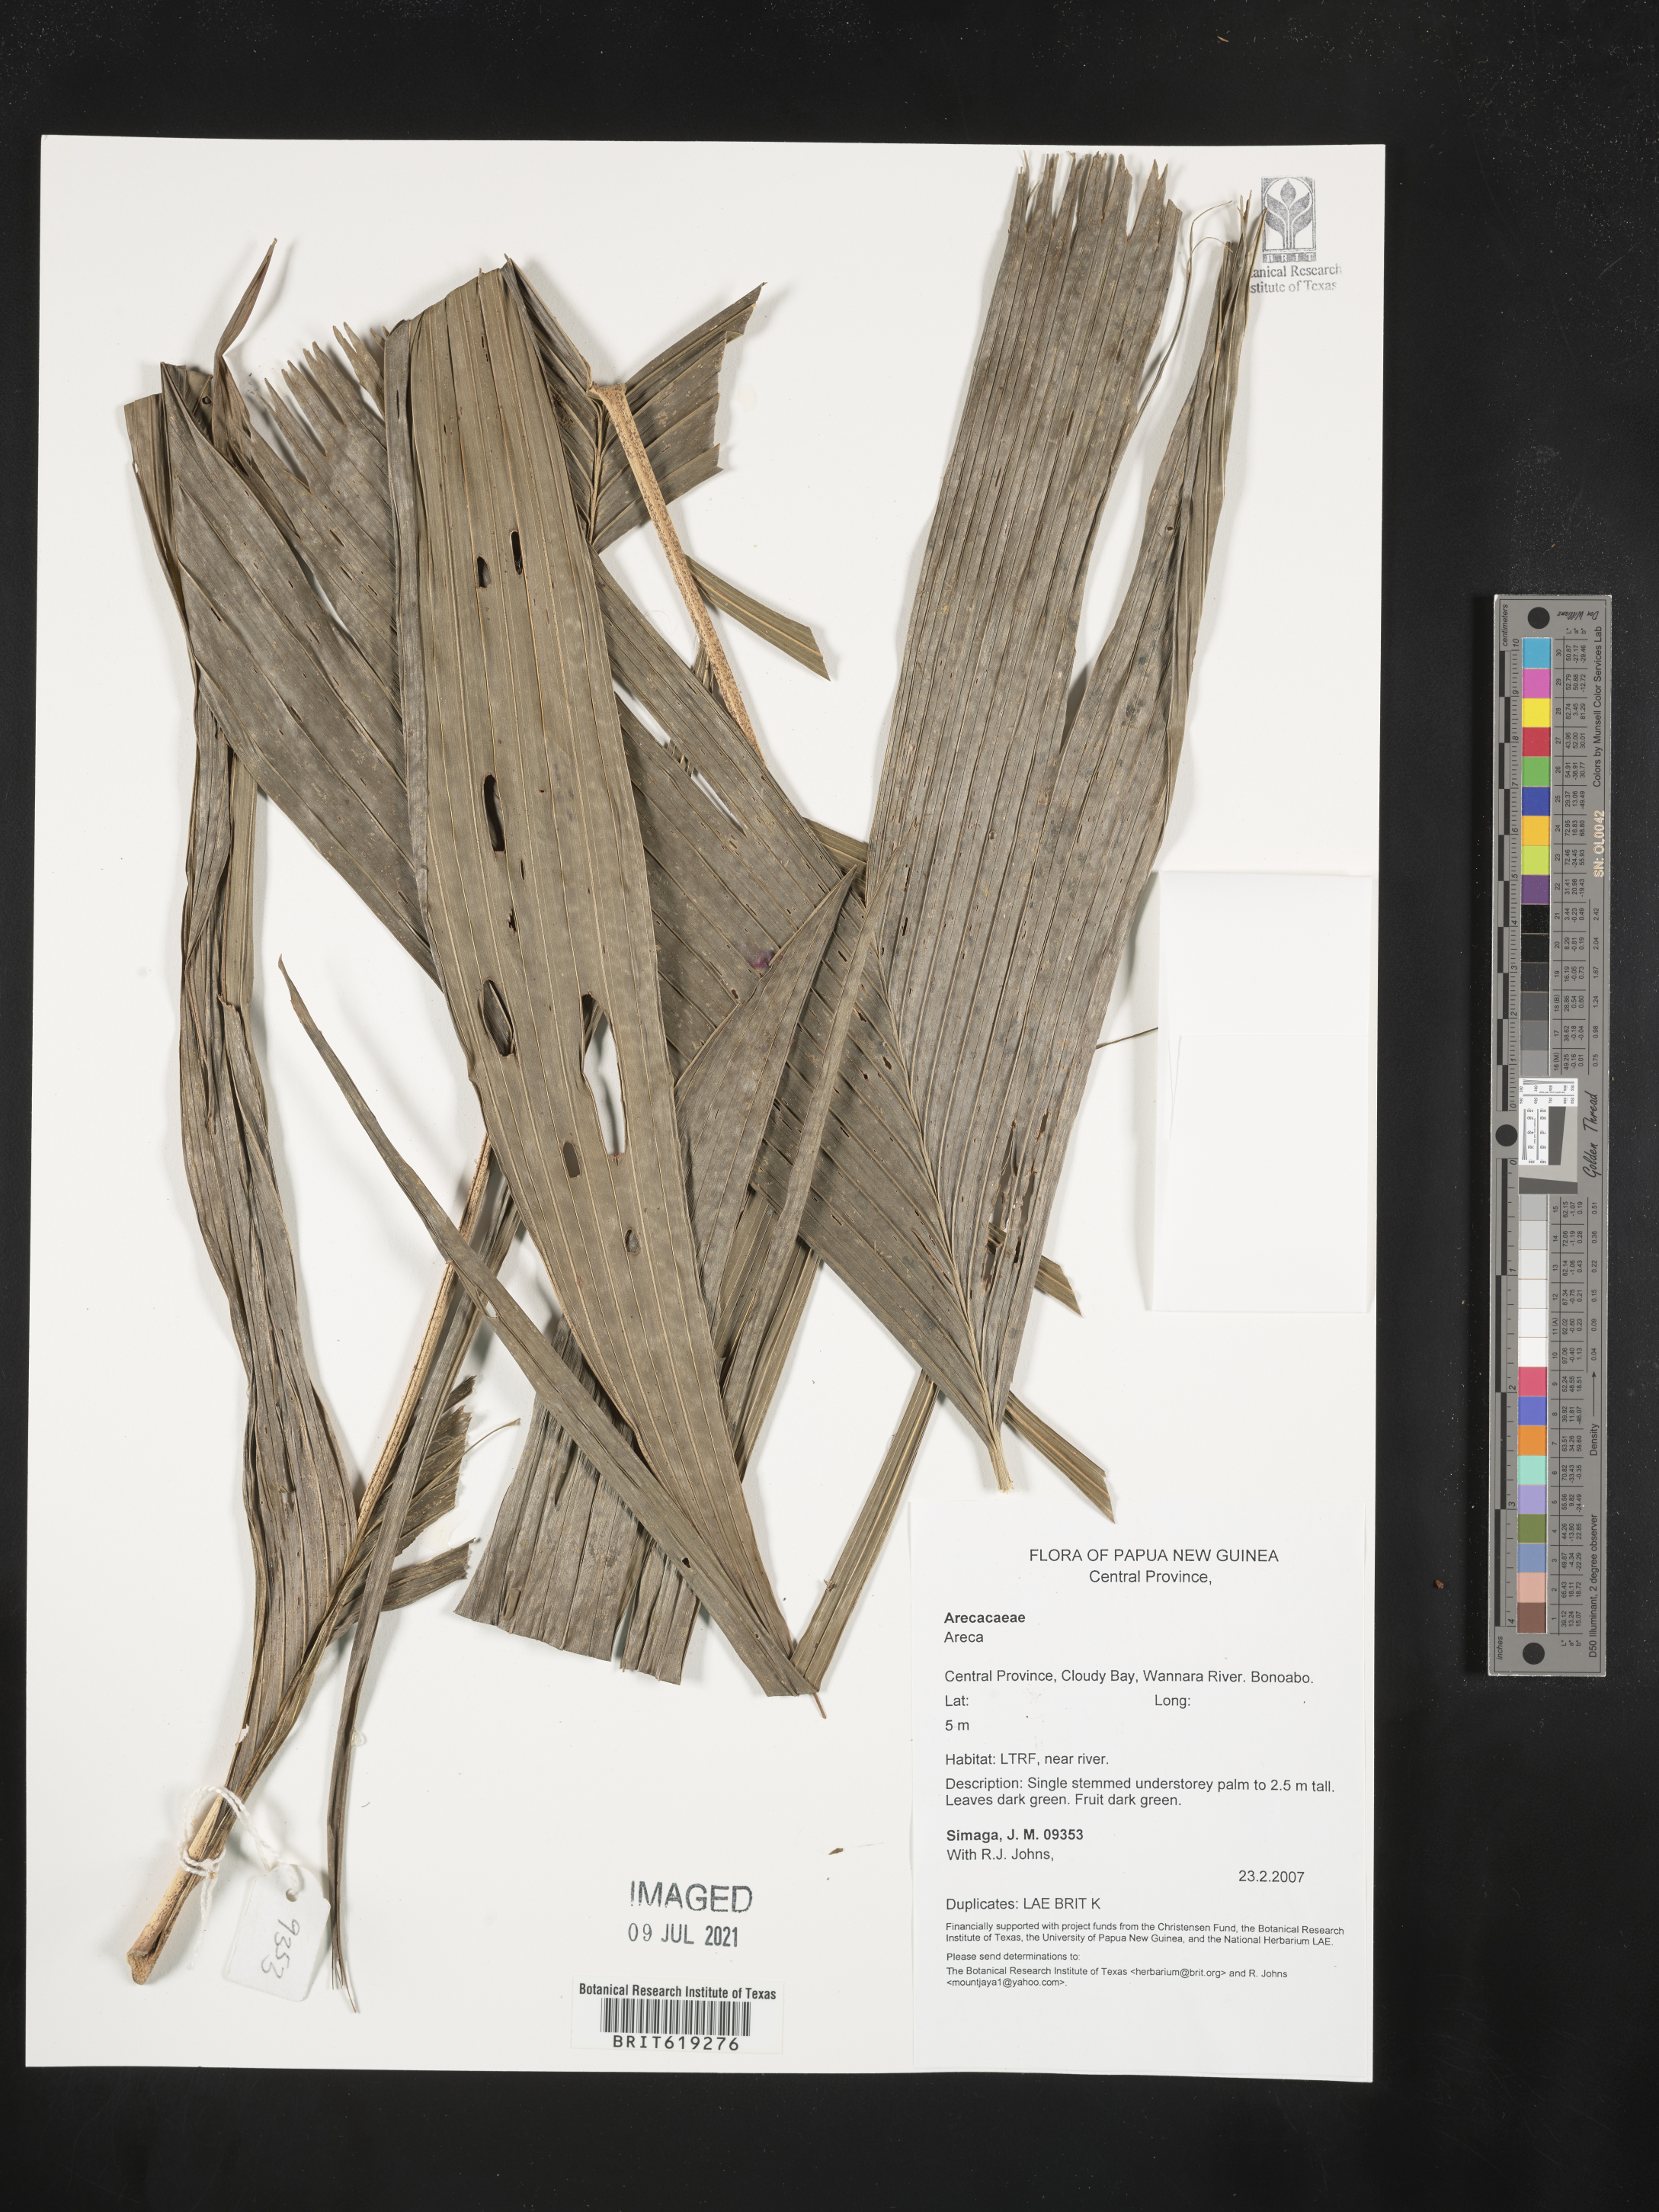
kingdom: Plantae
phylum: Tracheophyta
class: Liliopsida
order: Arecales
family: Arecaceae
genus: Areca
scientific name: Areca
